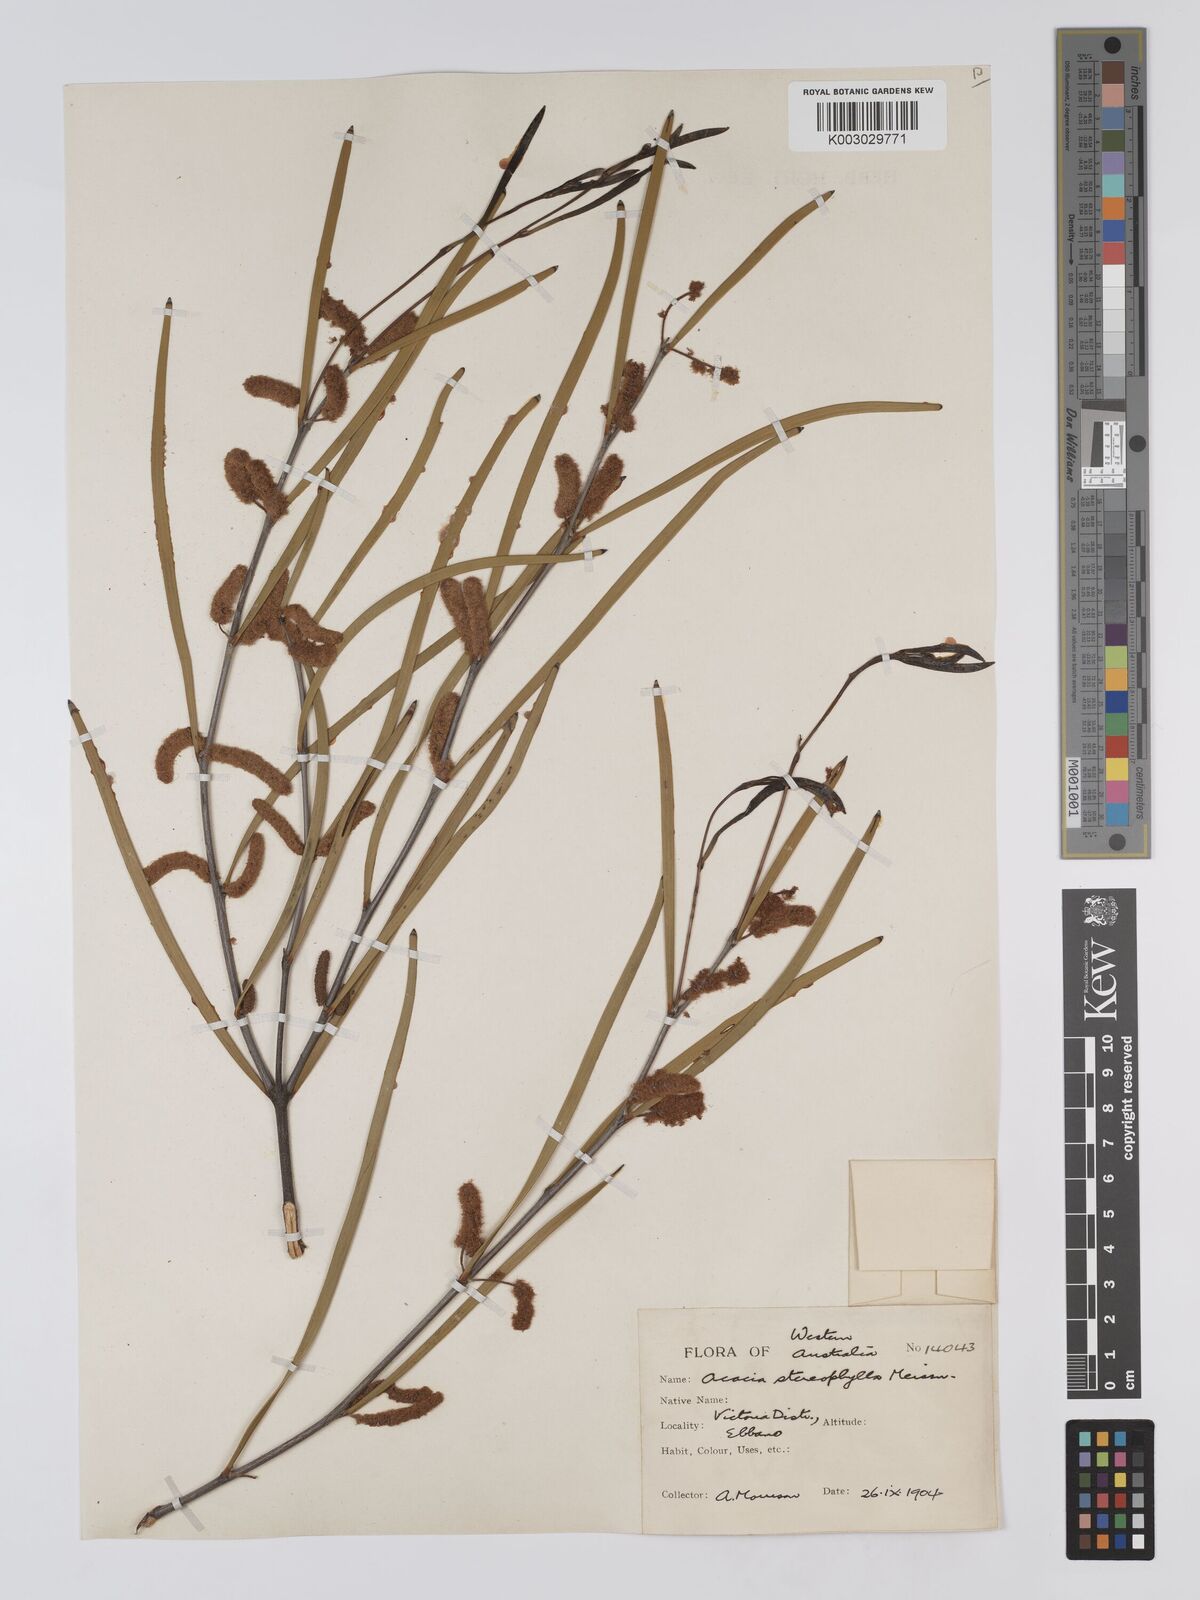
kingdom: Plantae
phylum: Tracheophyta
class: Magnoliopsida
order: Fabales
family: Fabaceae
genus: Acacia
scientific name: Acacia stereophylla
